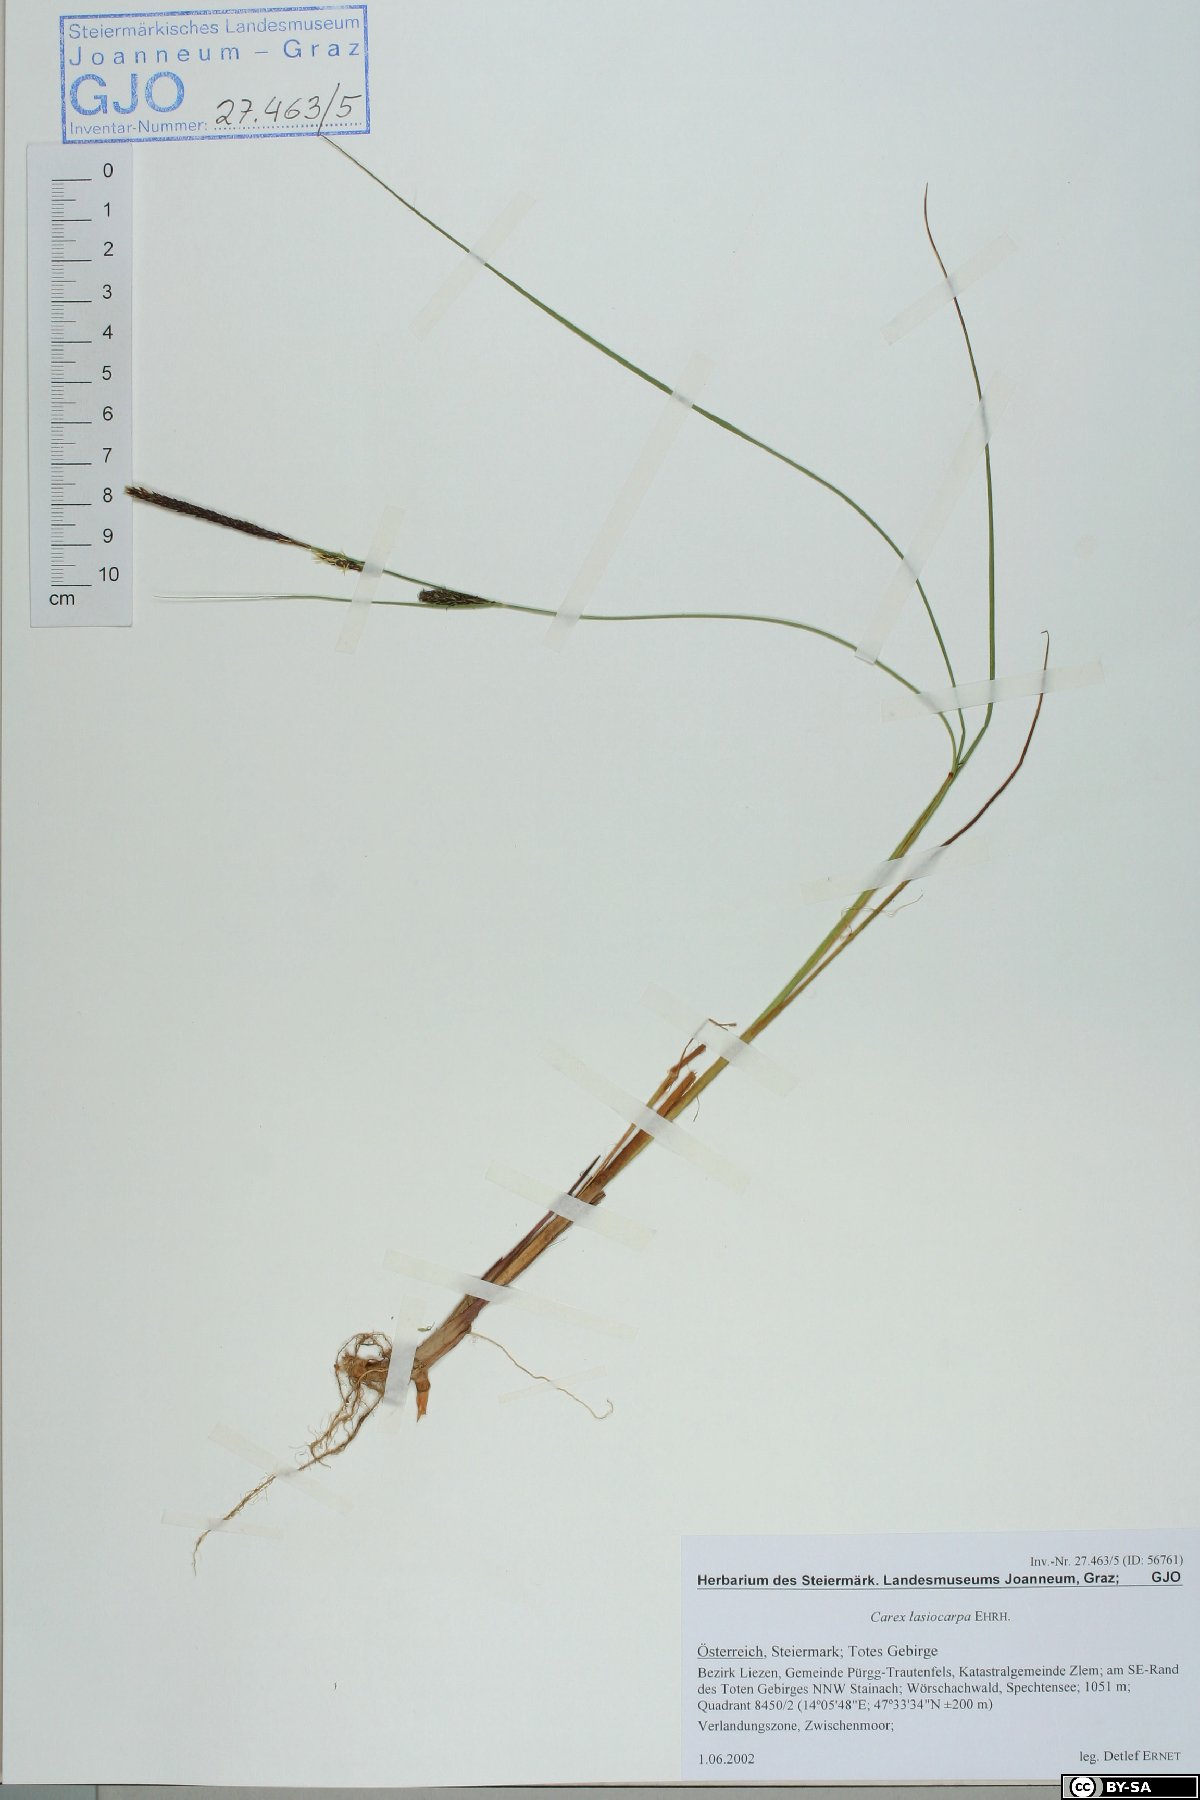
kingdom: Plantae
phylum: Tracheophyta
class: Liliopsida
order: Poales
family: Cyperaceae
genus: Carex
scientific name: Carex lasiocarpa
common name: Slender sedge
